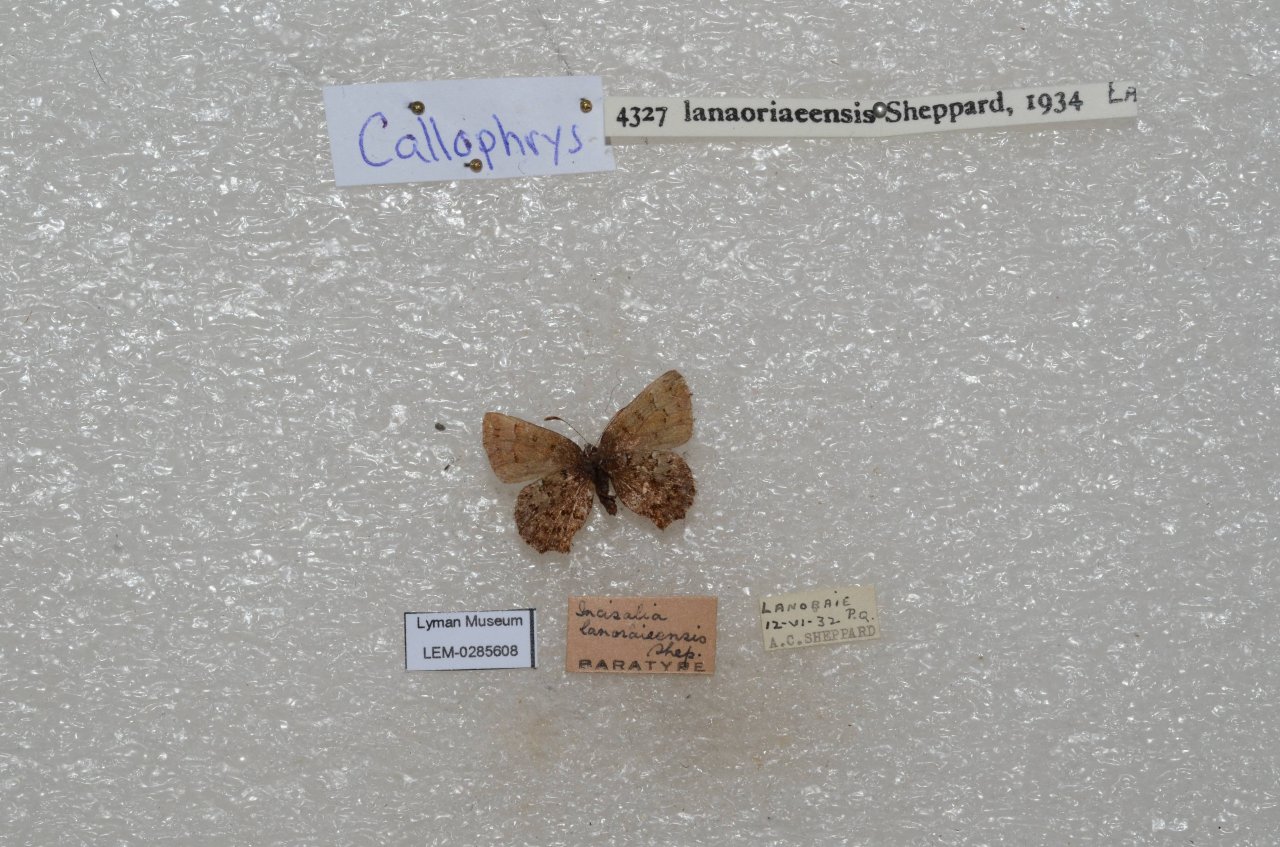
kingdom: Animalia
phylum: Arthropoda
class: Insecta
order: Lepidoptera
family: Lycaenidae
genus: Incisalia
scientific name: Incisalia lanoraieensis
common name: Bog Elfin
